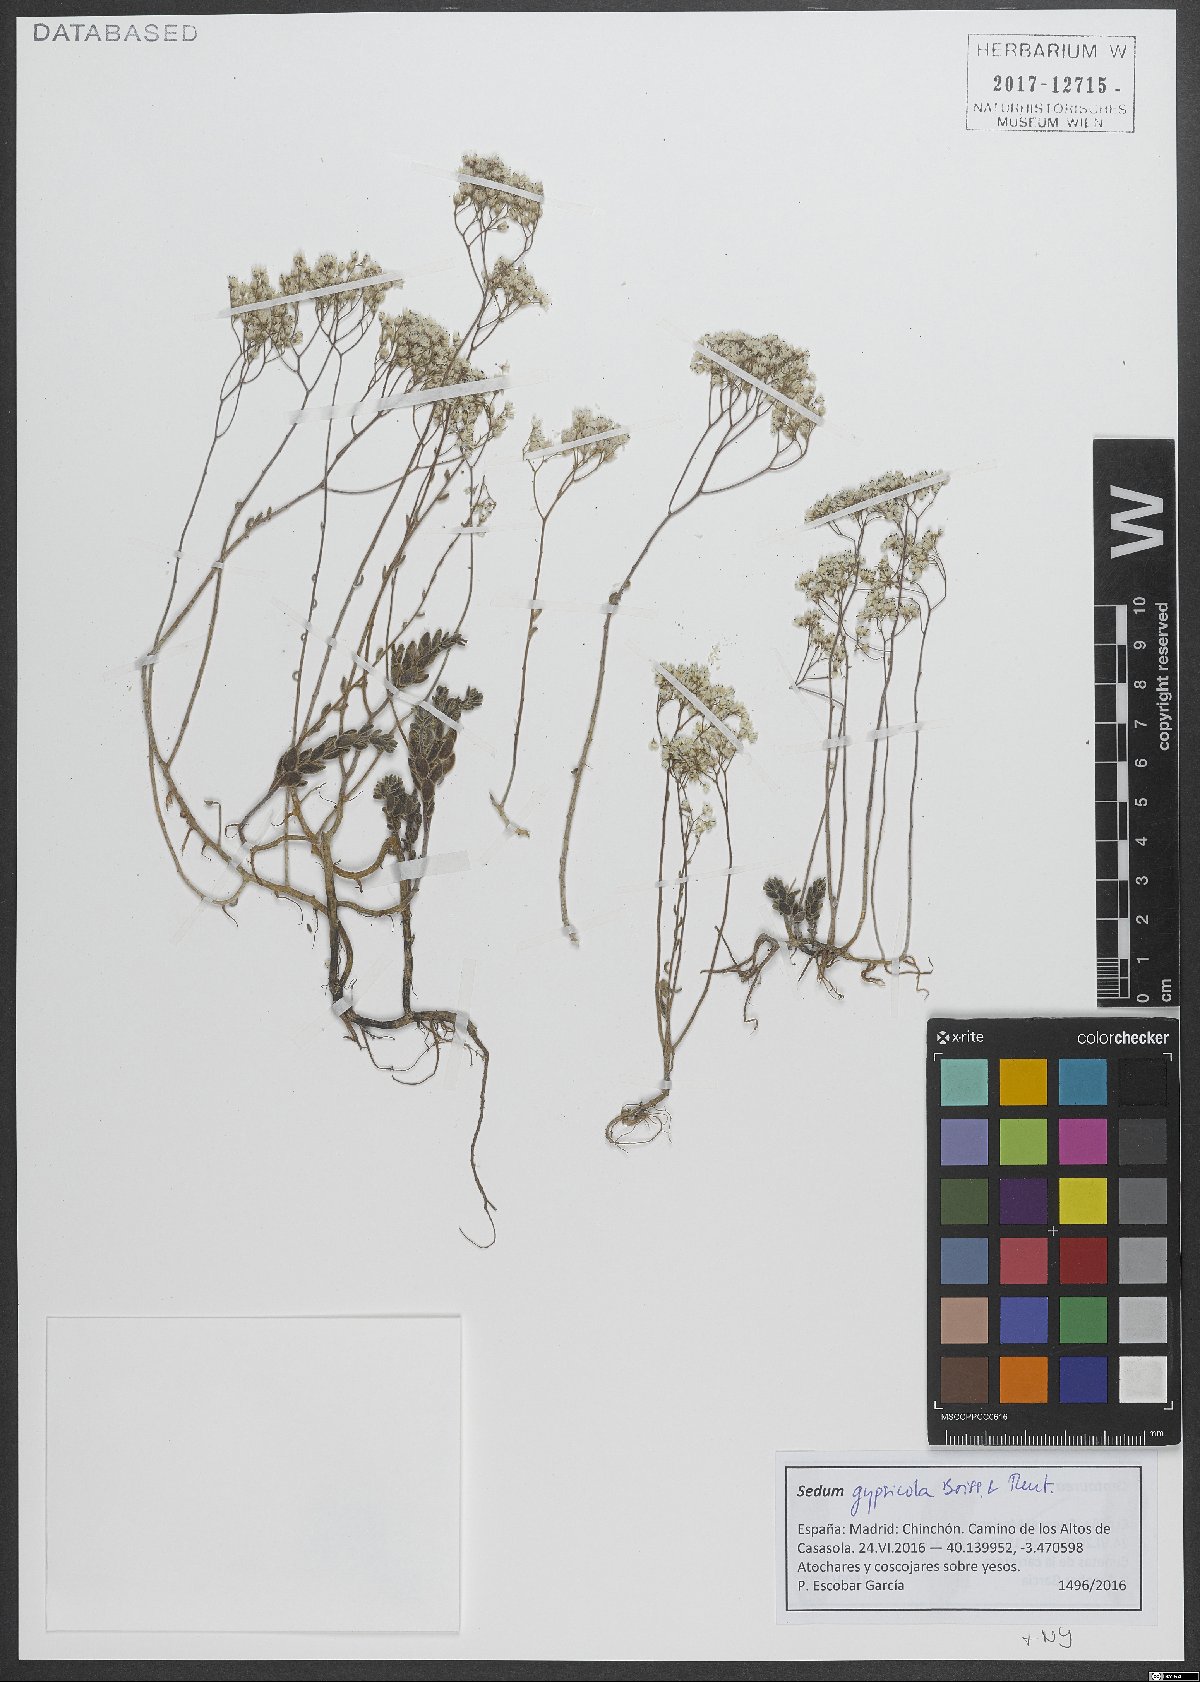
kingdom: Plantae
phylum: Tracheophyta
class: Magnoliopsida
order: Saxifragales
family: Crassulaceae
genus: Sedum
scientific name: Sedum gypsicola
